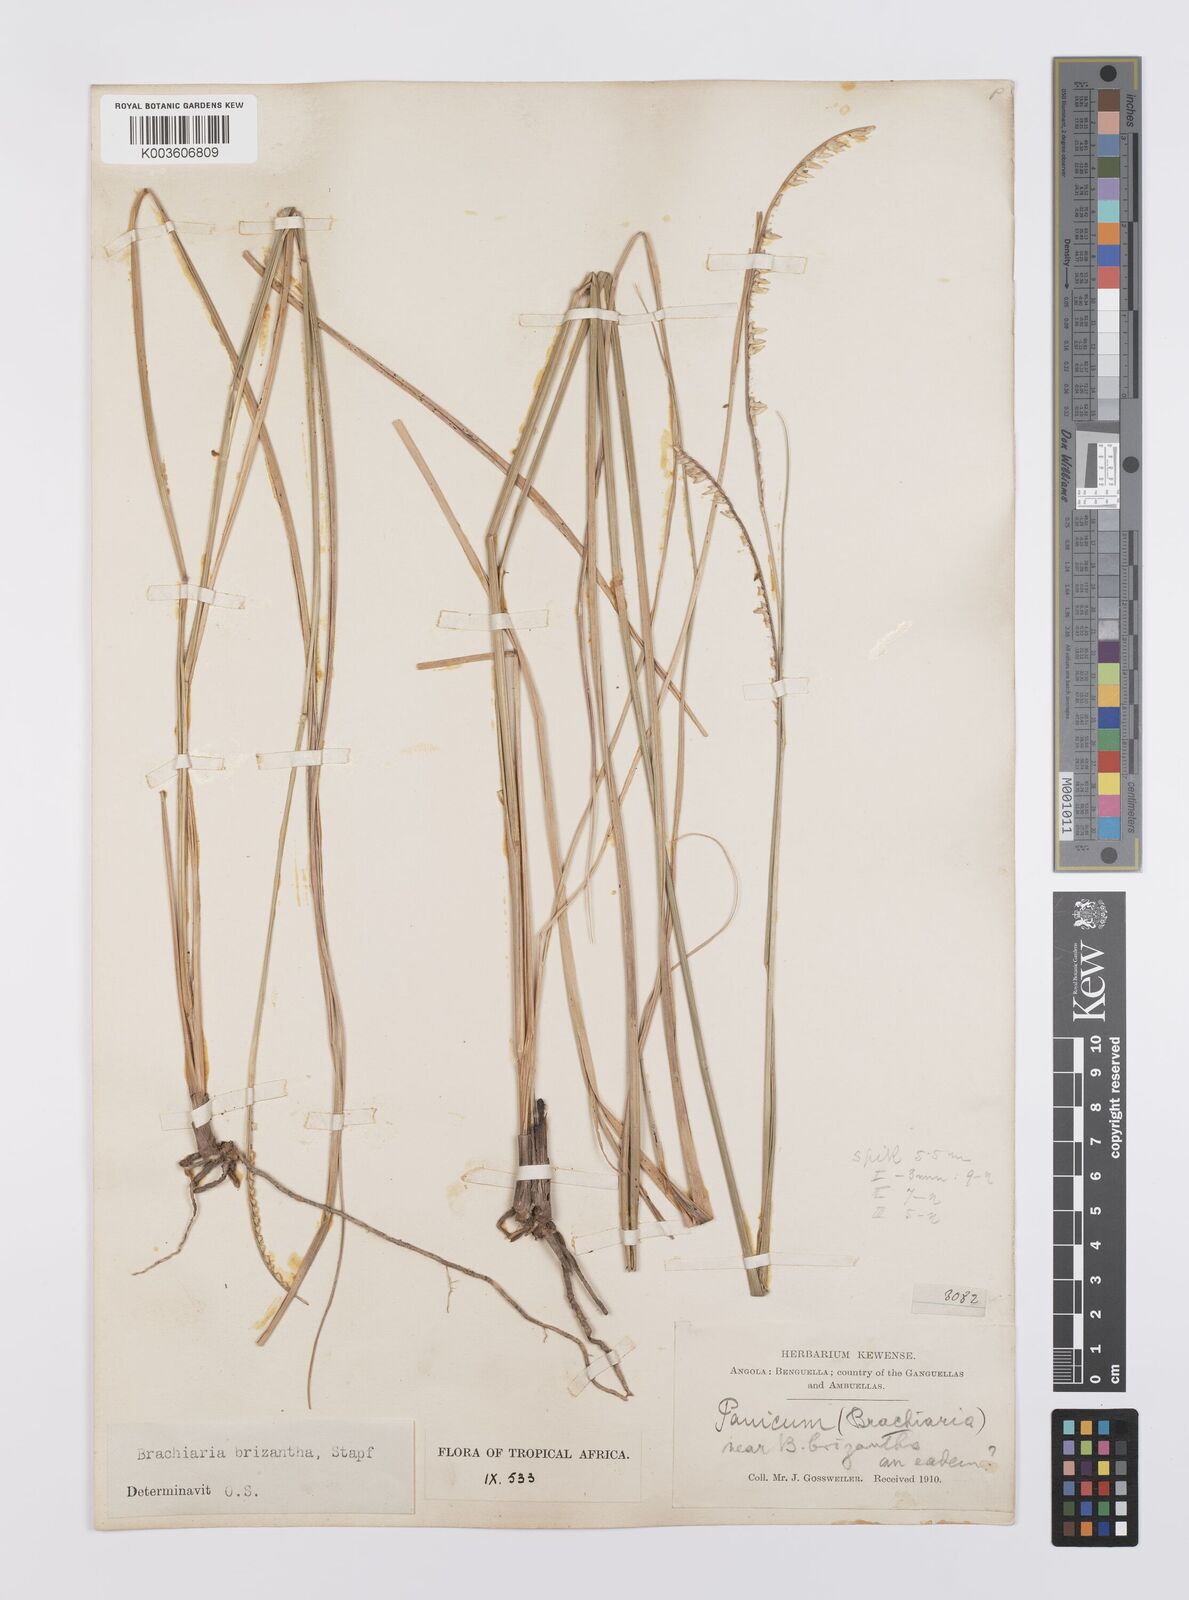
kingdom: Plantae
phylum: Tracheophyta
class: Liliopsida
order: Poales
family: Poaceae
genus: Urochloa
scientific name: Urochloa brizantha
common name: Palisade signalgrass
